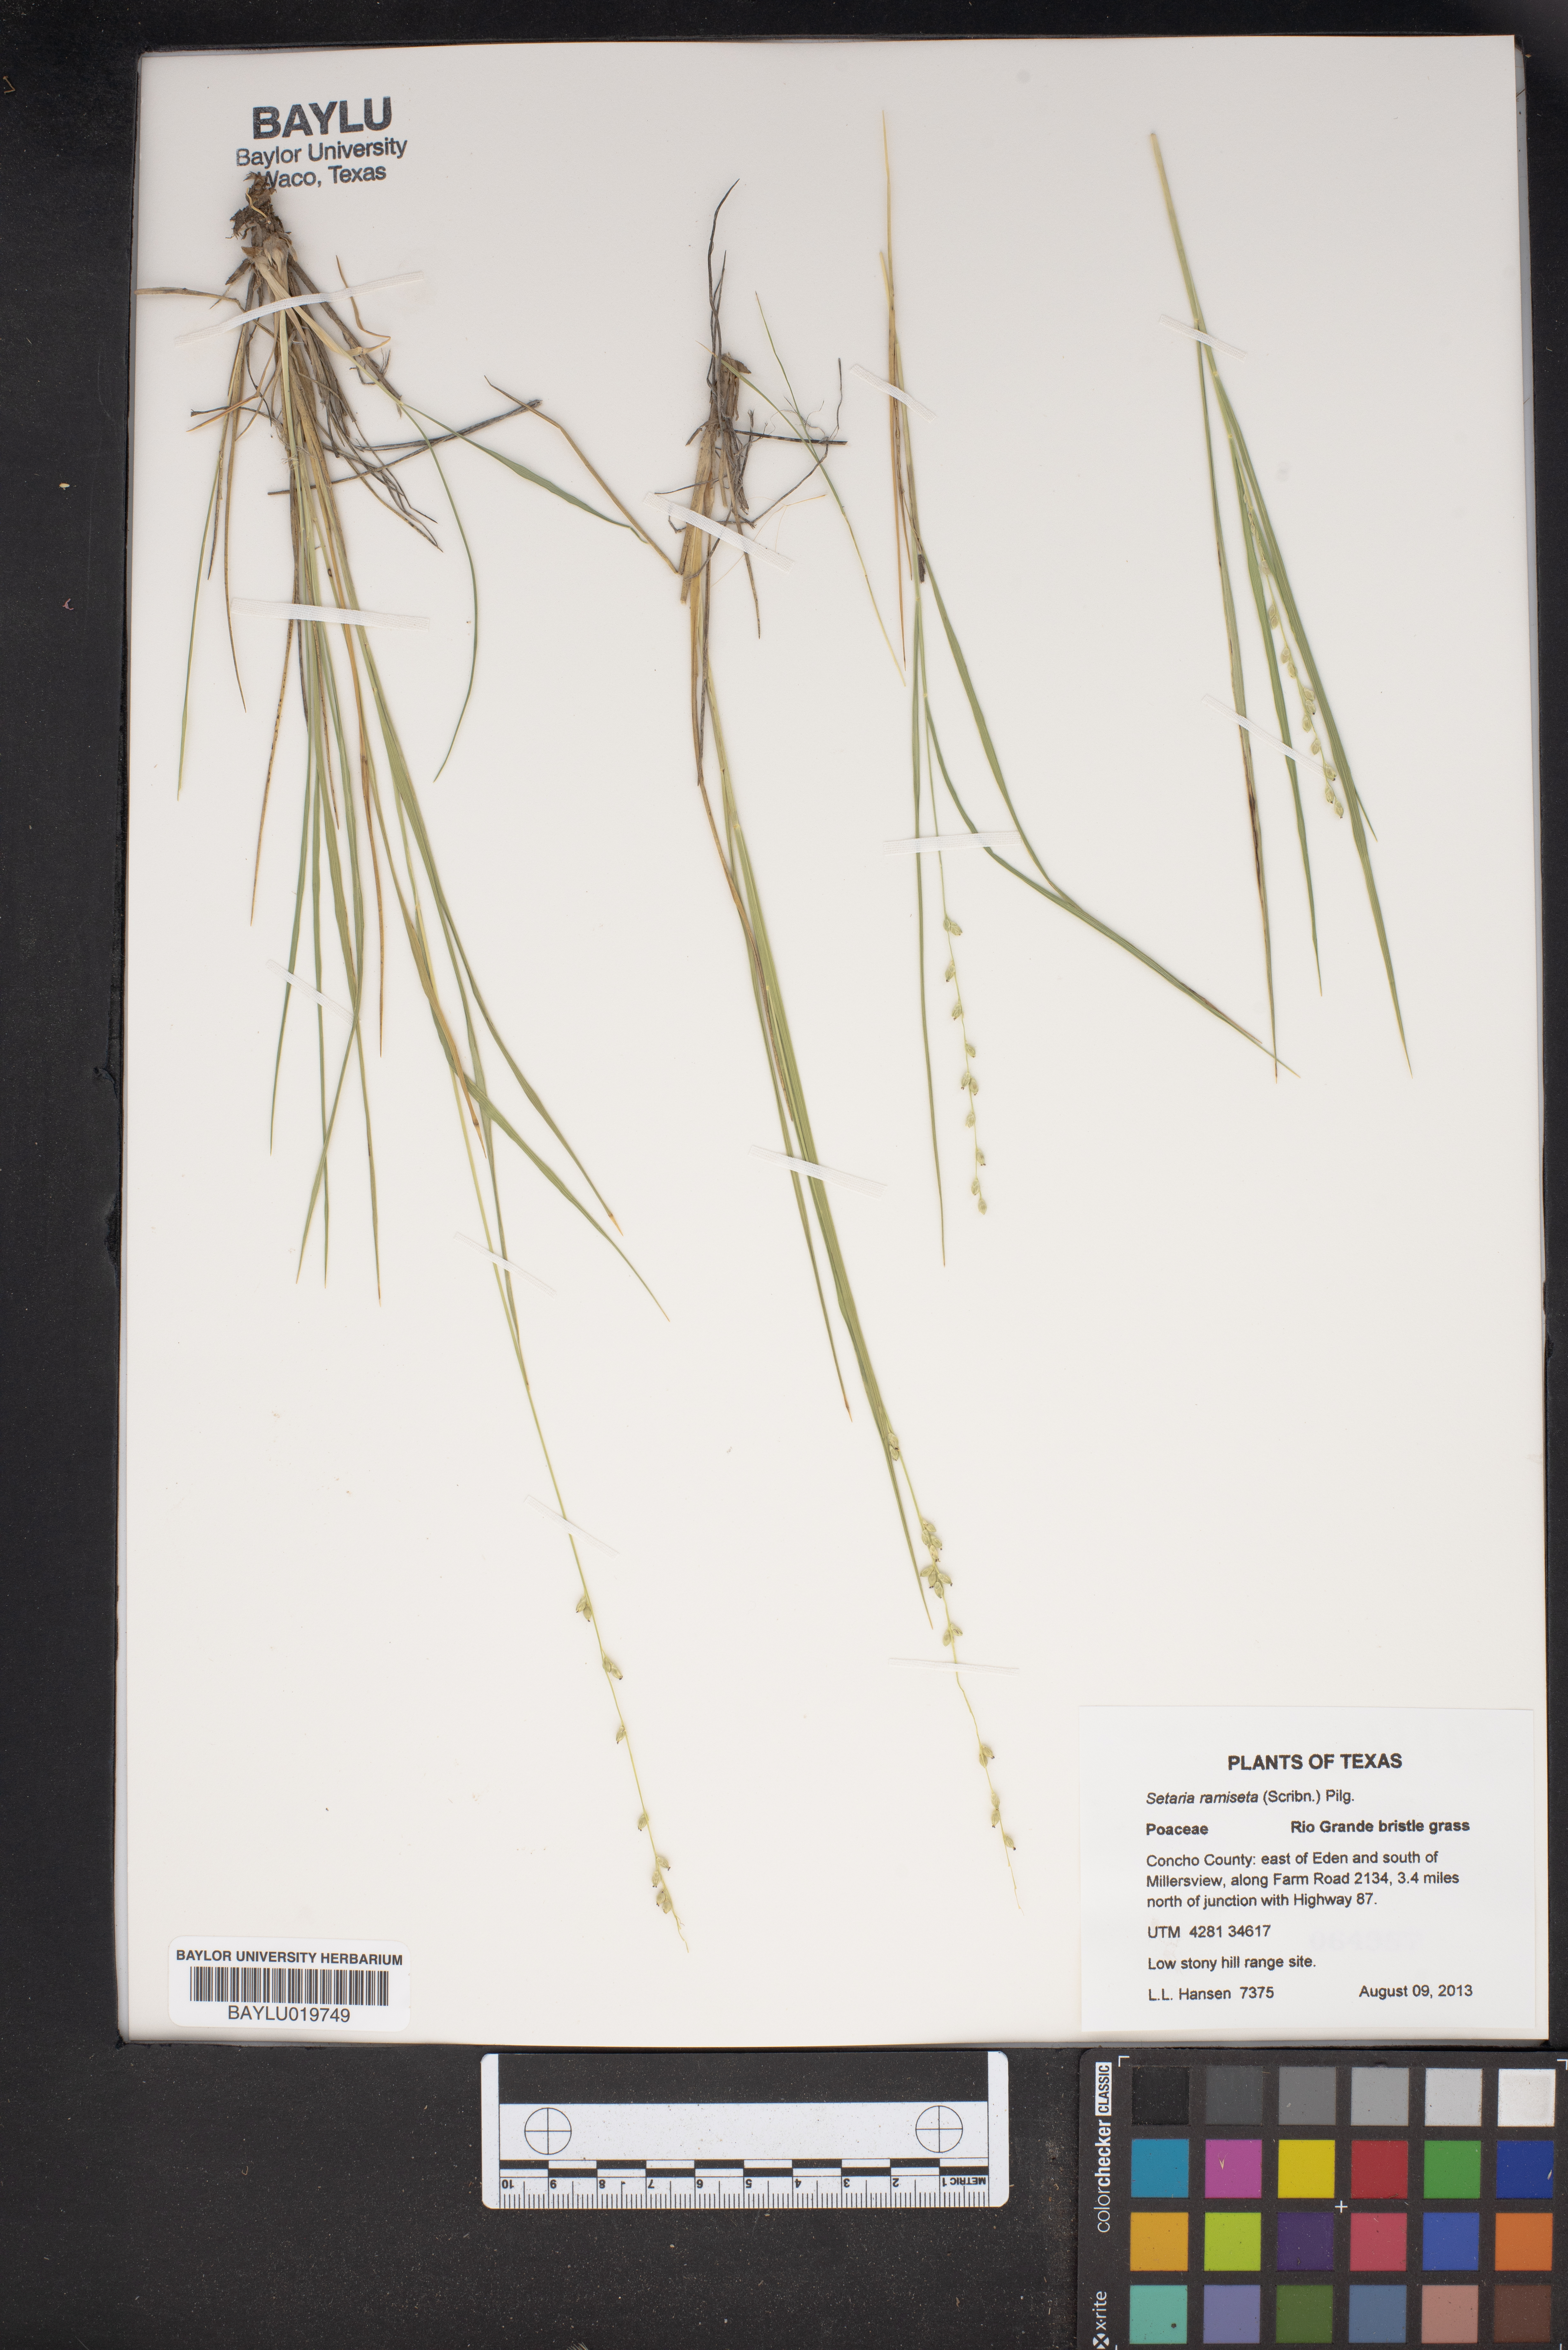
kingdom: Plantae
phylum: Tracheophyta
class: Liliopsida
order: Poales
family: Poaceae
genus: Setaria
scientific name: Setaria reverchonii
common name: Reverchon's bristle grass
